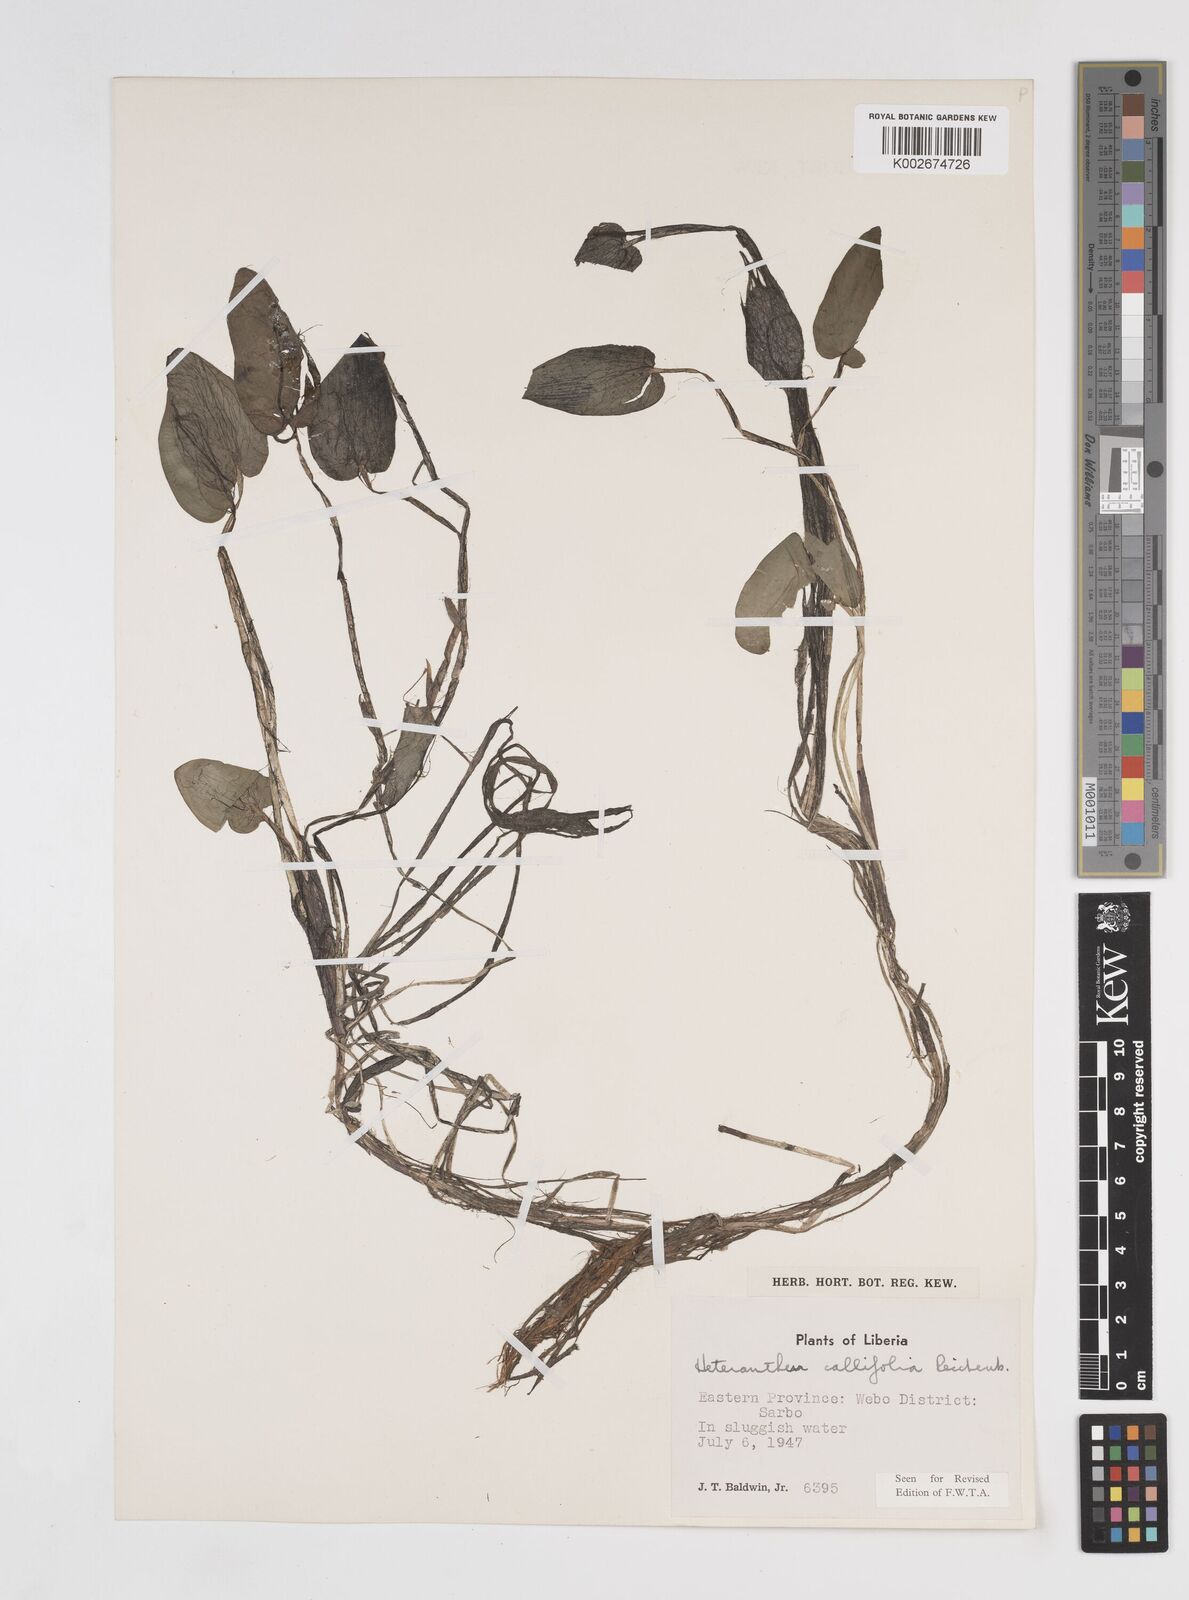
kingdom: Plantae
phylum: Tracheophyta
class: Liliopsida
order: Commelinales
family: Pontederiaceae
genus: Heteranthera
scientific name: Heteranthera callifolia
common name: Mud plantain
